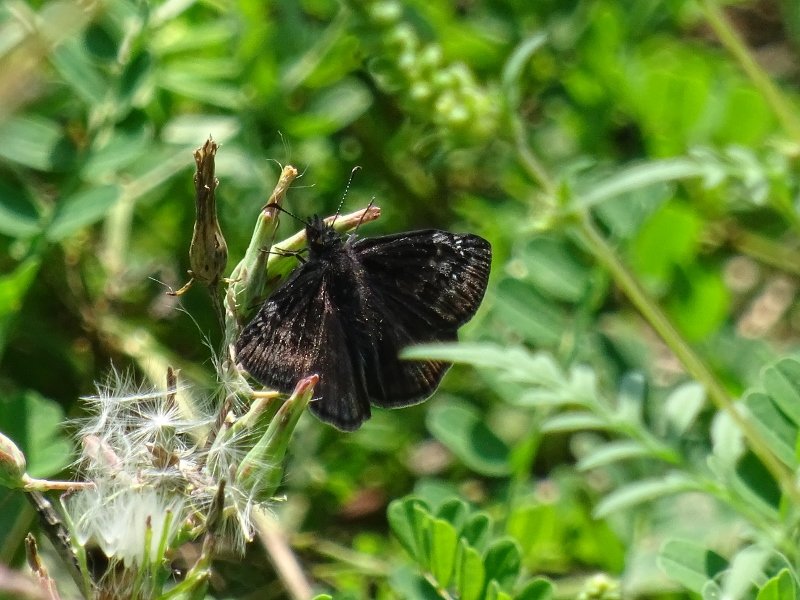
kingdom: Animalia
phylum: Arthropoda
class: Insecta
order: Lepidoptera
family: Hesperiidae
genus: Gesta
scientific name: Gesta
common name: Wild Indigo Duskywing
